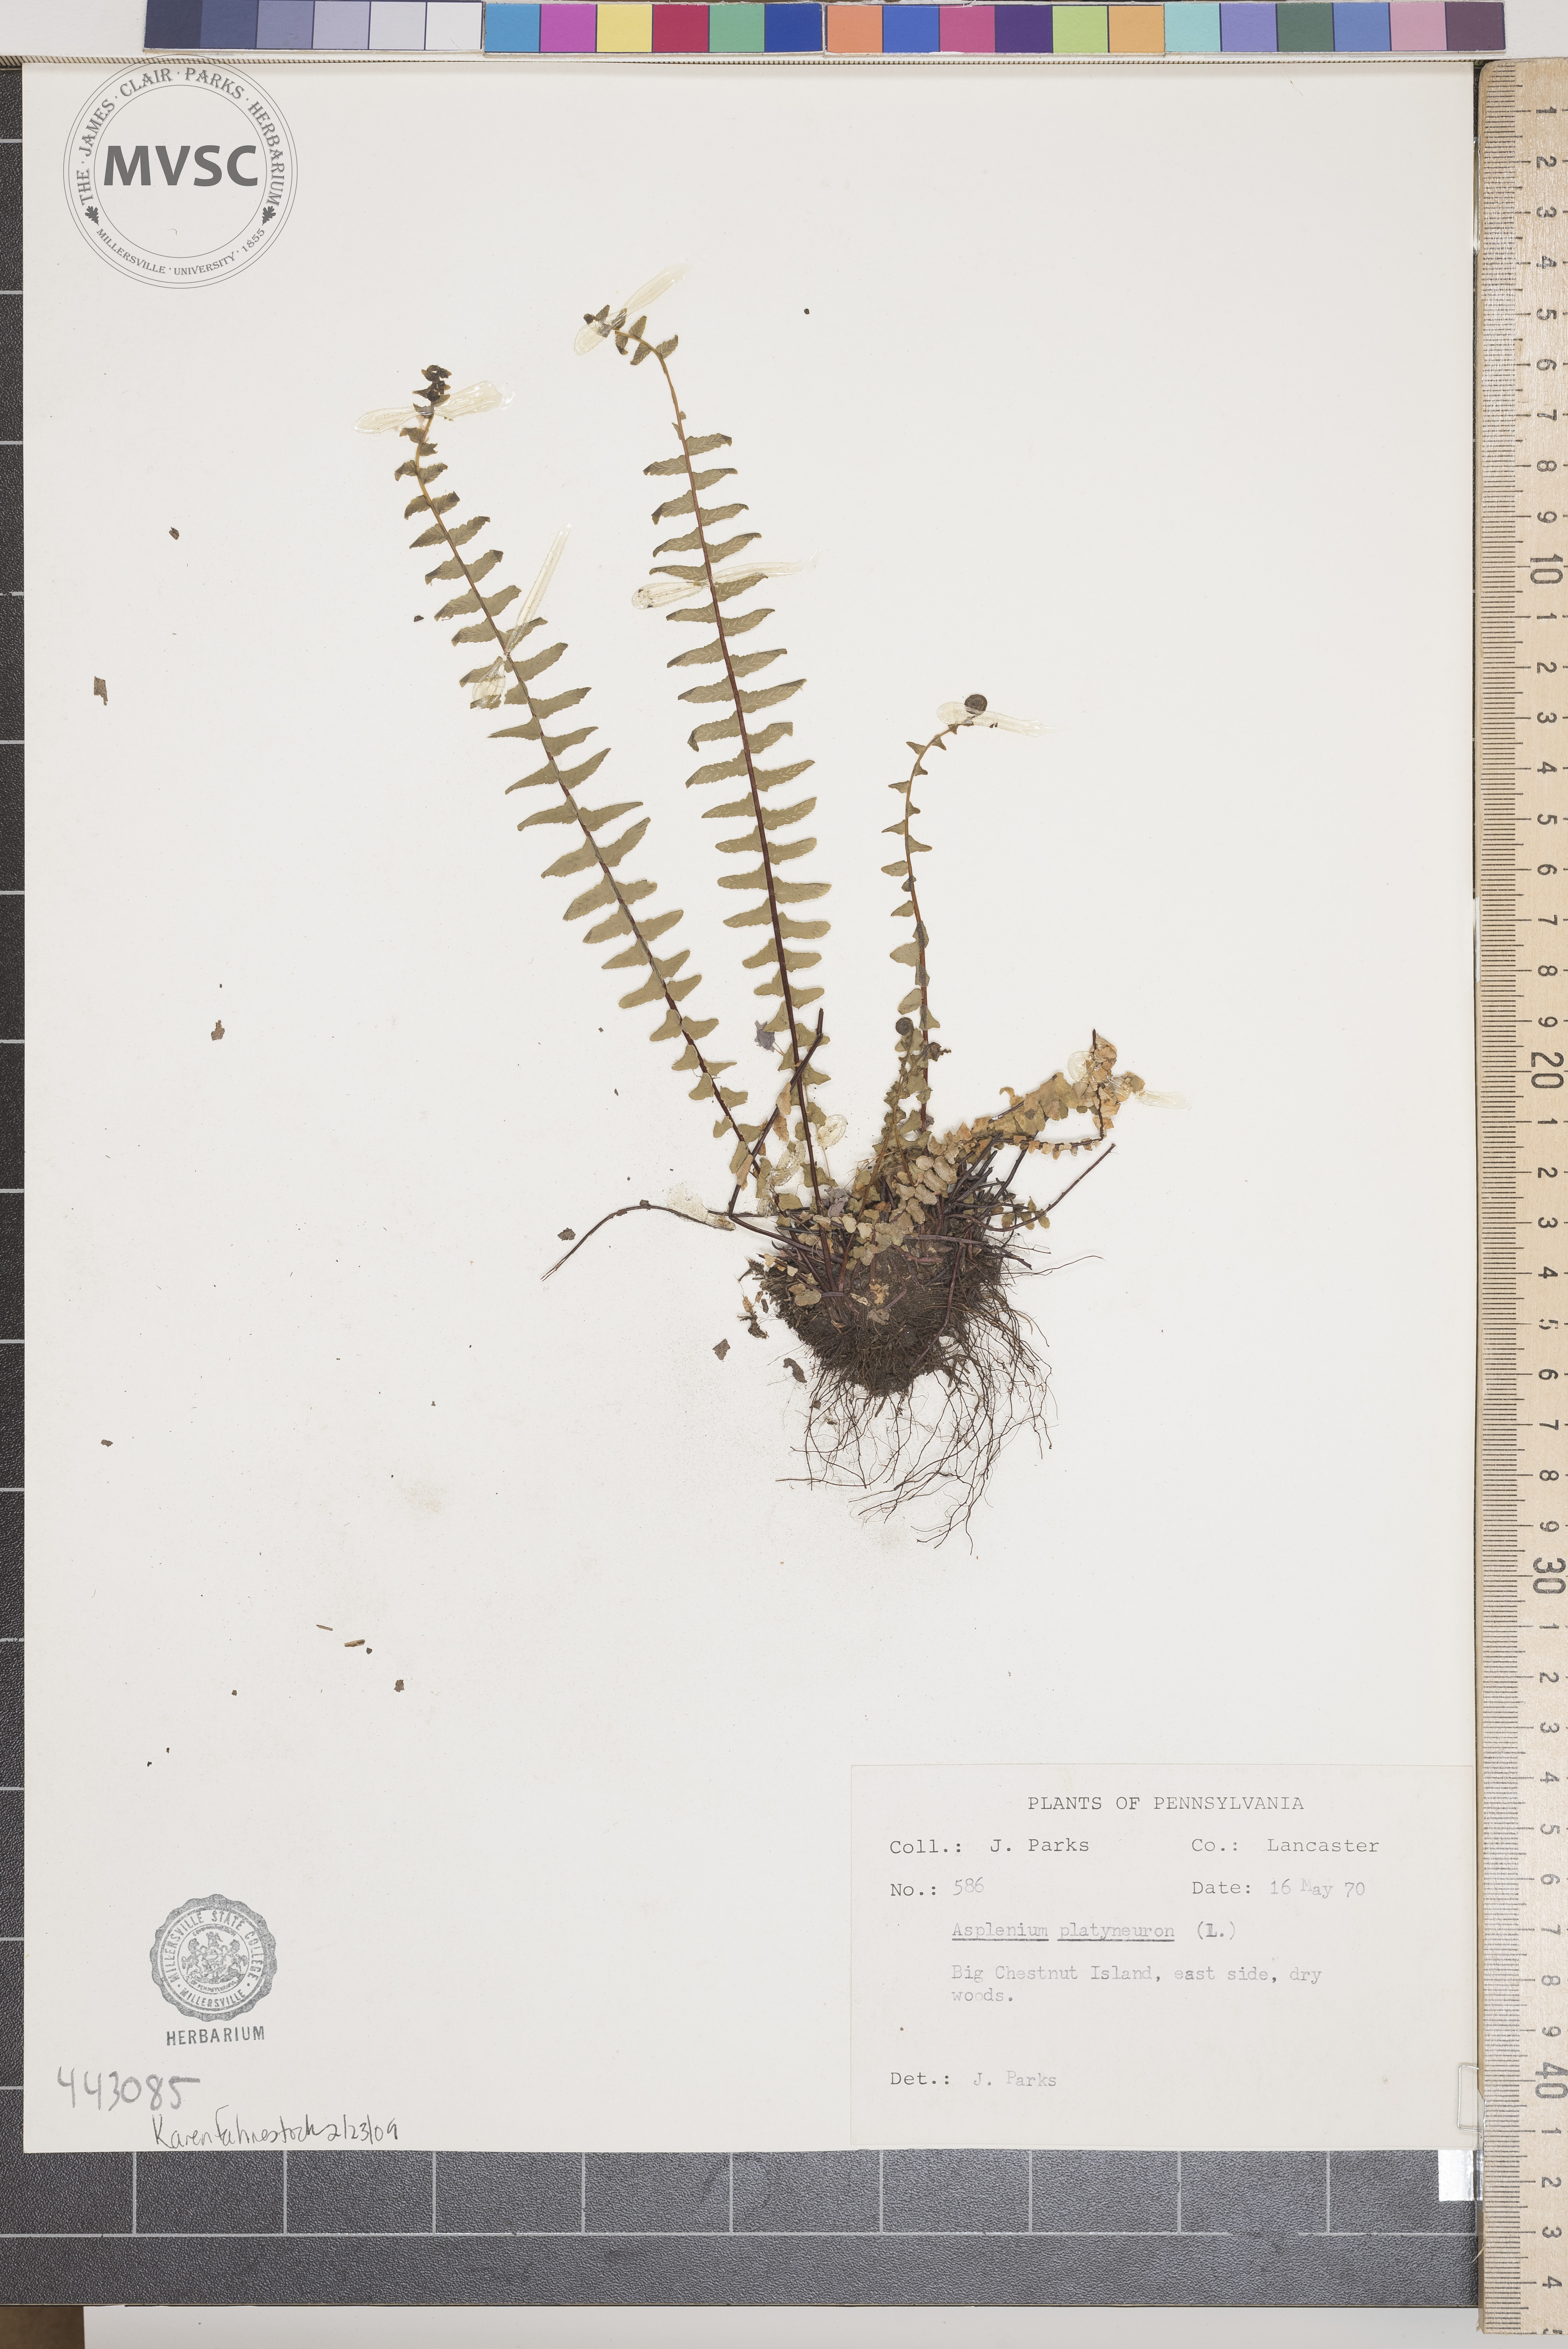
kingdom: Plantae
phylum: Tracheophyta
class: Polypodiopsida
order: Polypodiales
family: Aspleniaceae
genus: Asplenium
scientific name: Asplenium platyneuron
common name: Ebony spleenwort
